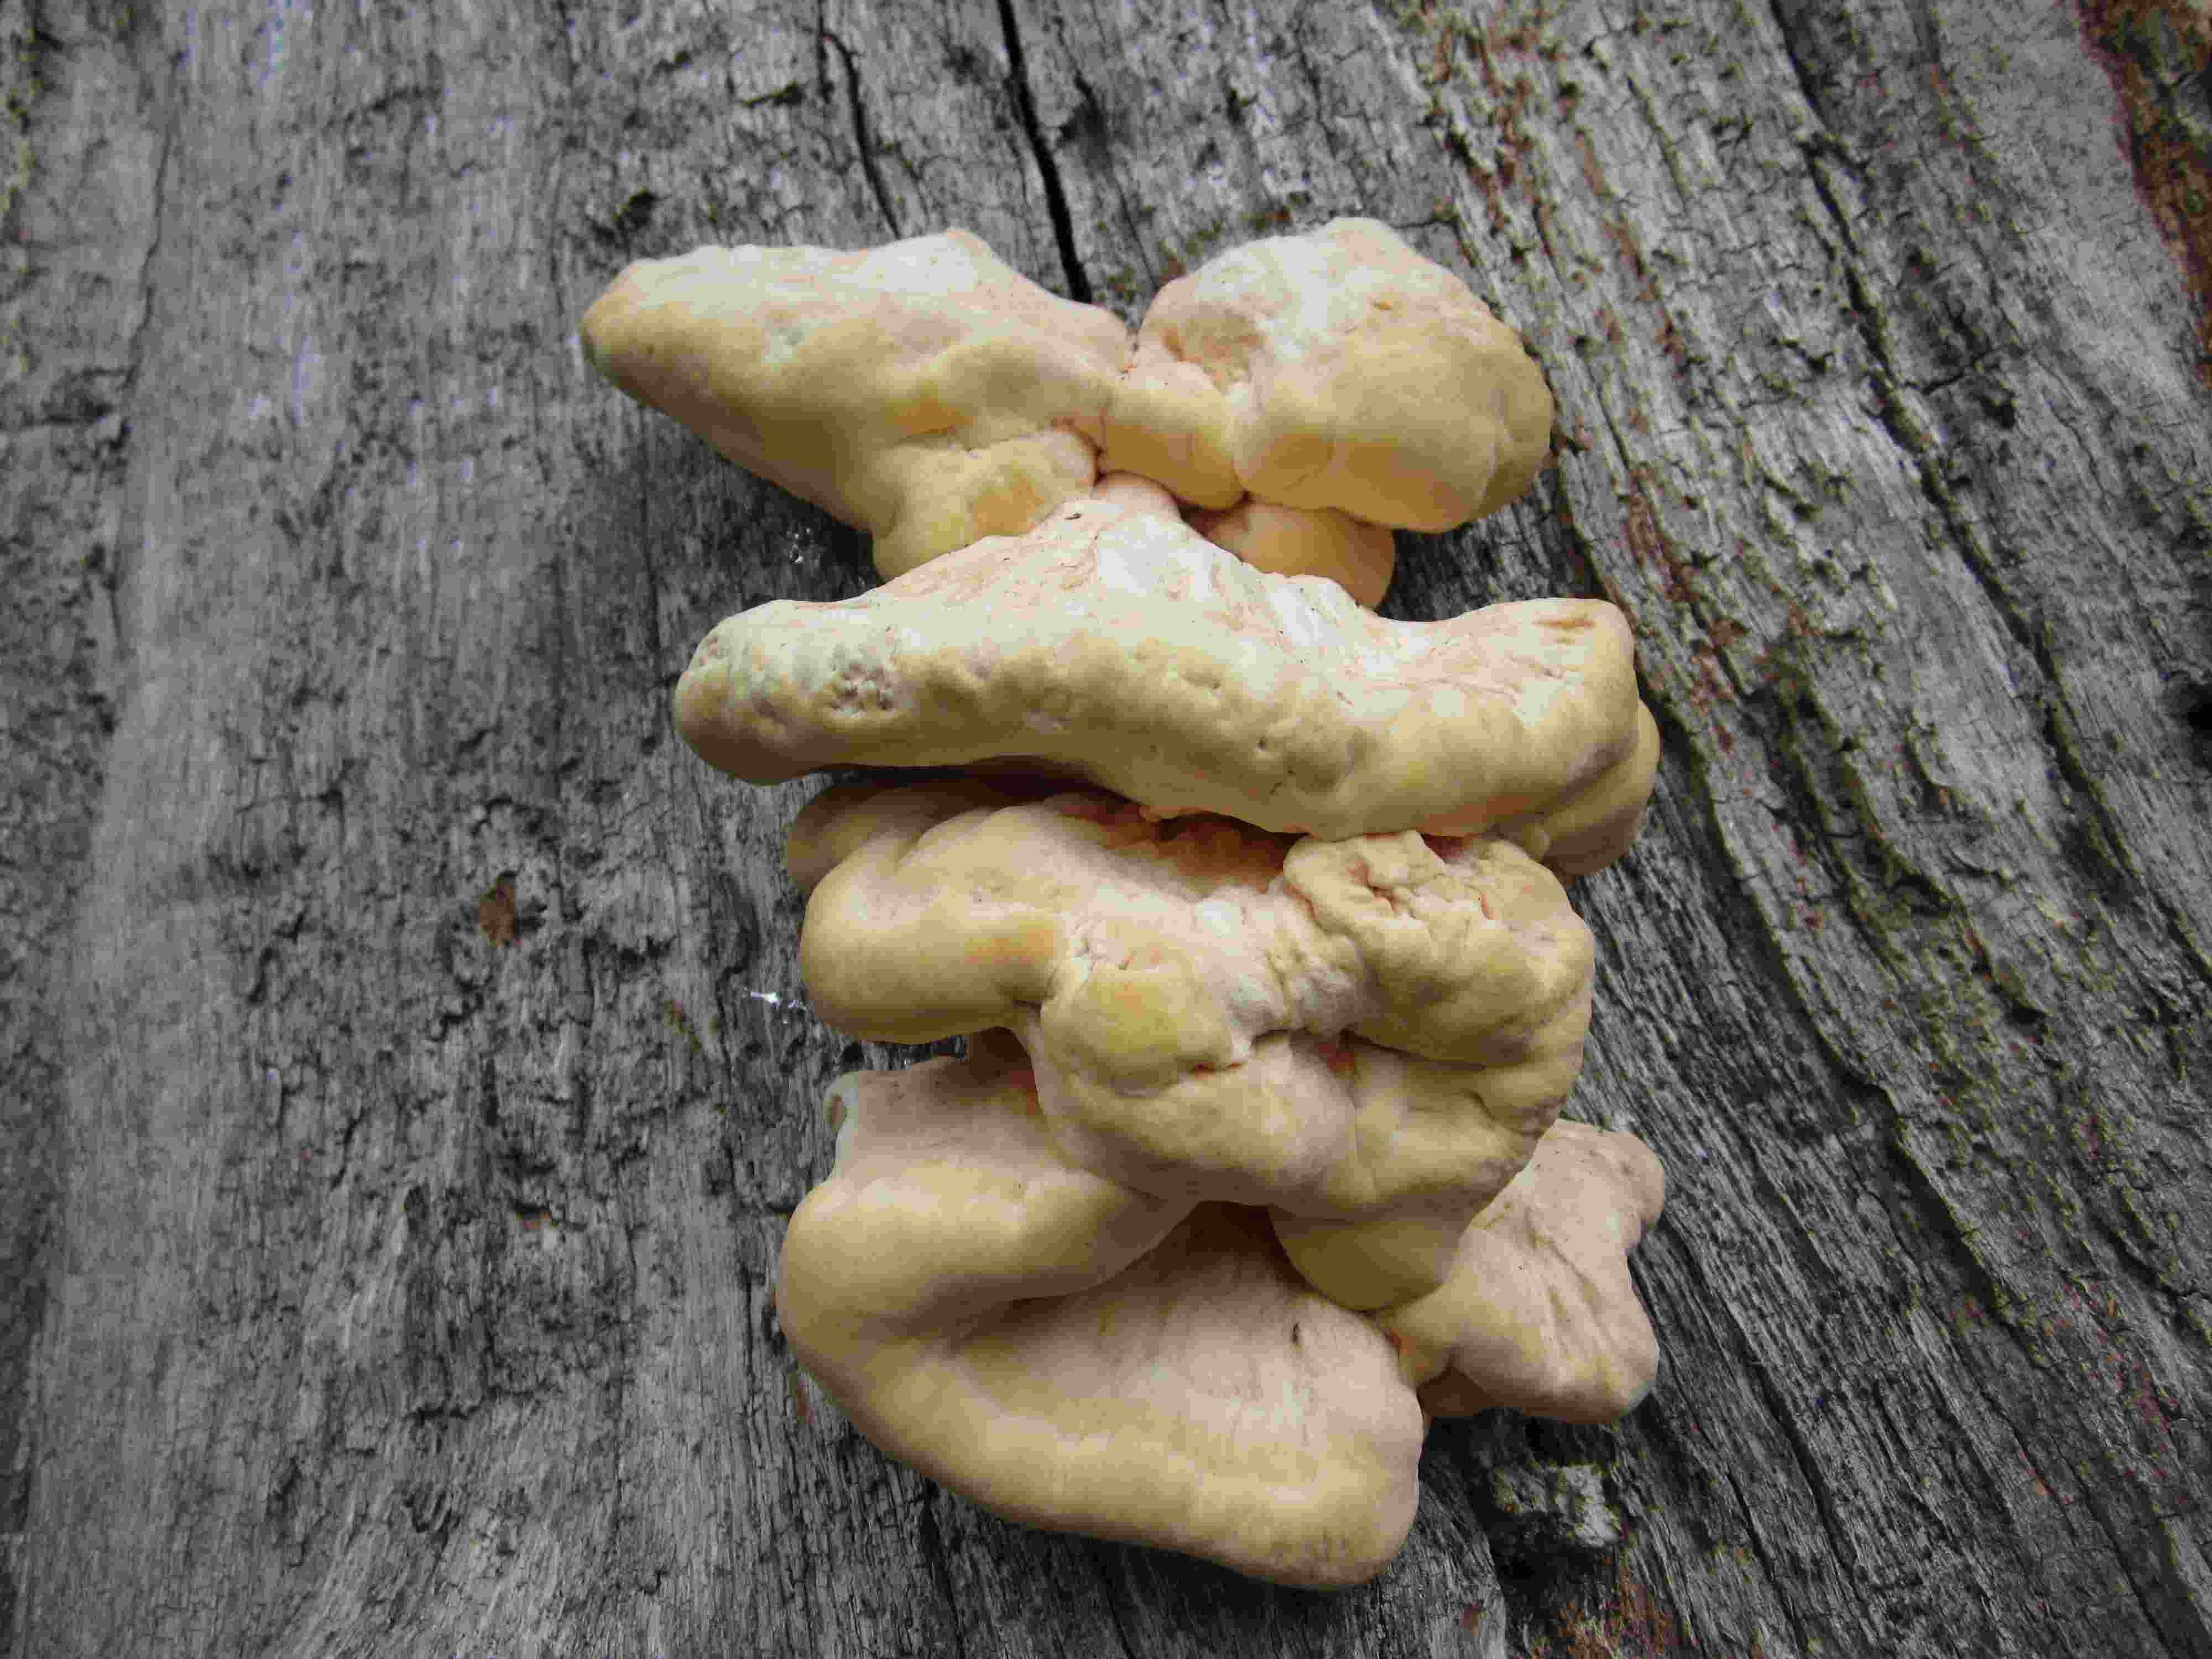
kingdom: Fungi
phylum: Basidiomycota
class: Agaricomycetes
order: Polyporales
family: Laetiporaceae
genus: Laetiporus
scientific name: Laetiporus sulphureus
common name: svovlporesvamp
